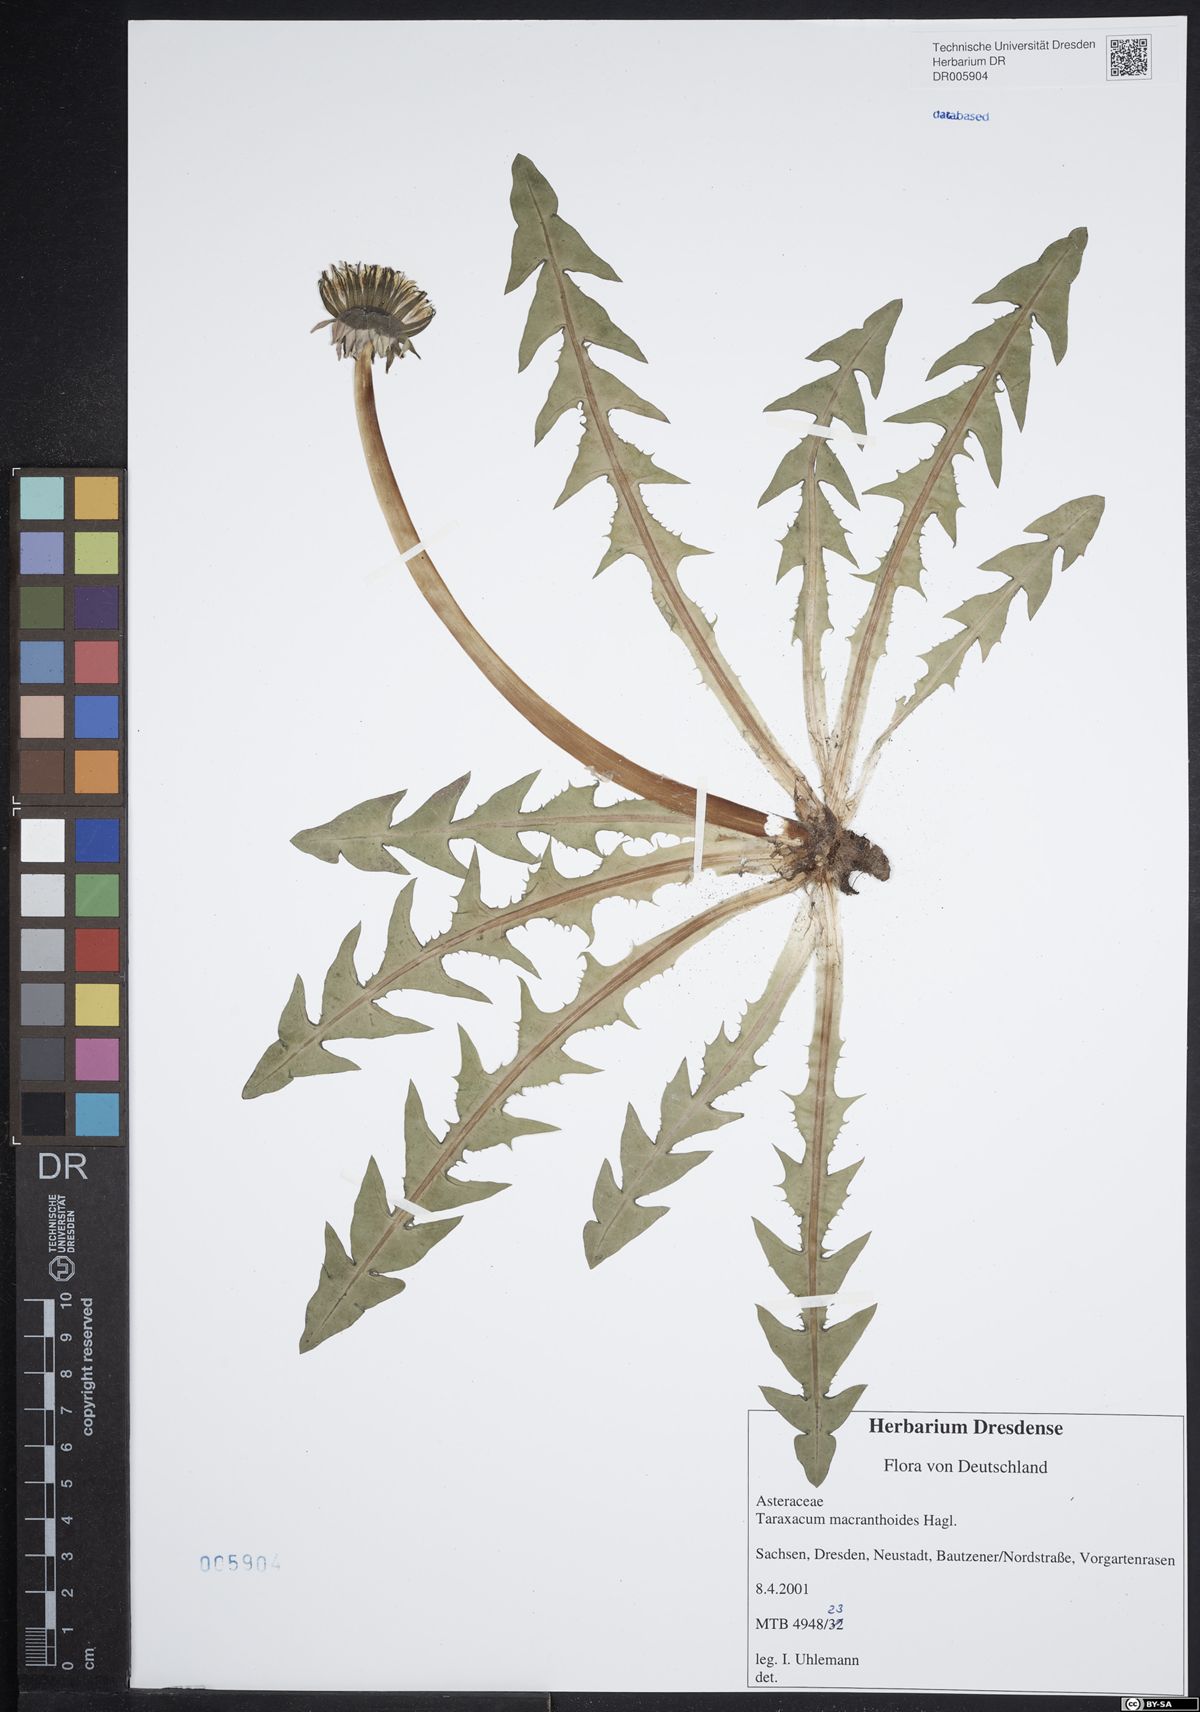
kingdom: Plantae
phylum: Tracheophyta
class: Magnoliopsida
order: Asterales
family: Asteraceae
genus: Taraxacum
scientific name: Taraxacum macranthoides
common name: Large-flowered dandelion
